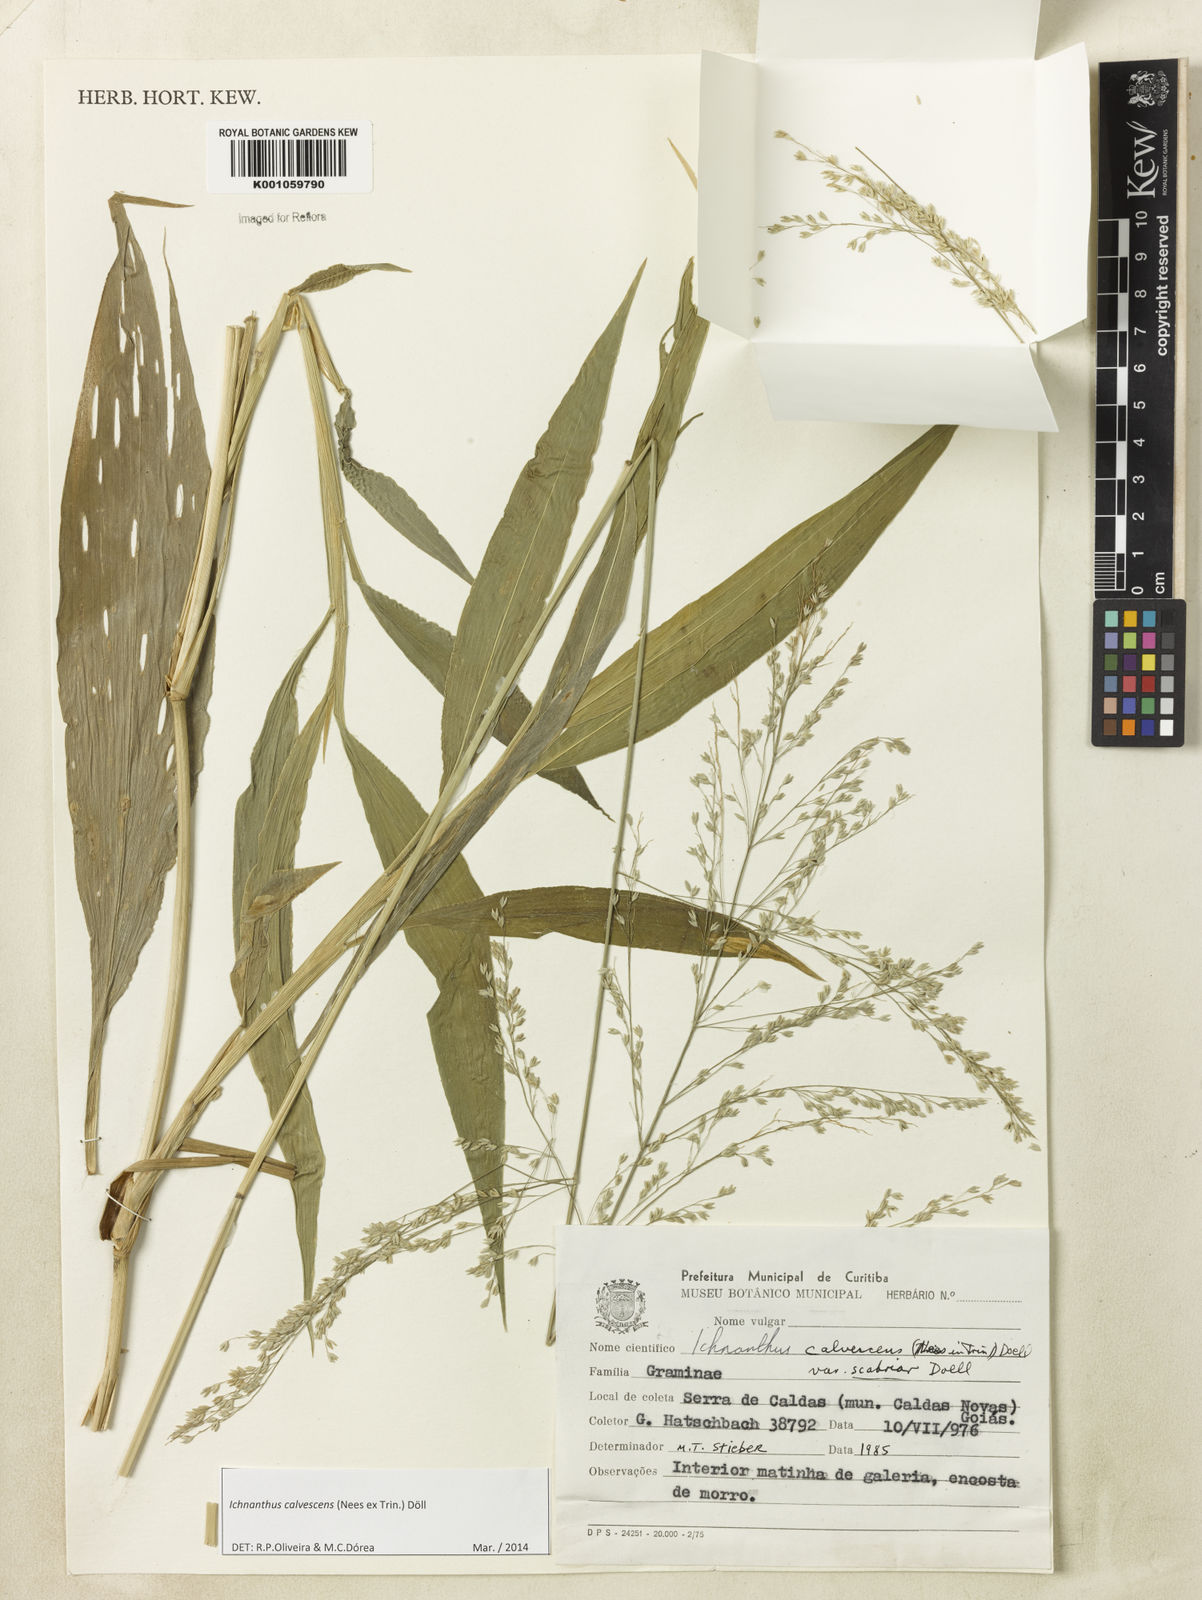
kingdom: Plantae
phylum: Tracheophyta
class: Liliopsida
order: Poales
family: Poaceae
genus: Ichnanthus
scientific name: Ichnanthus
